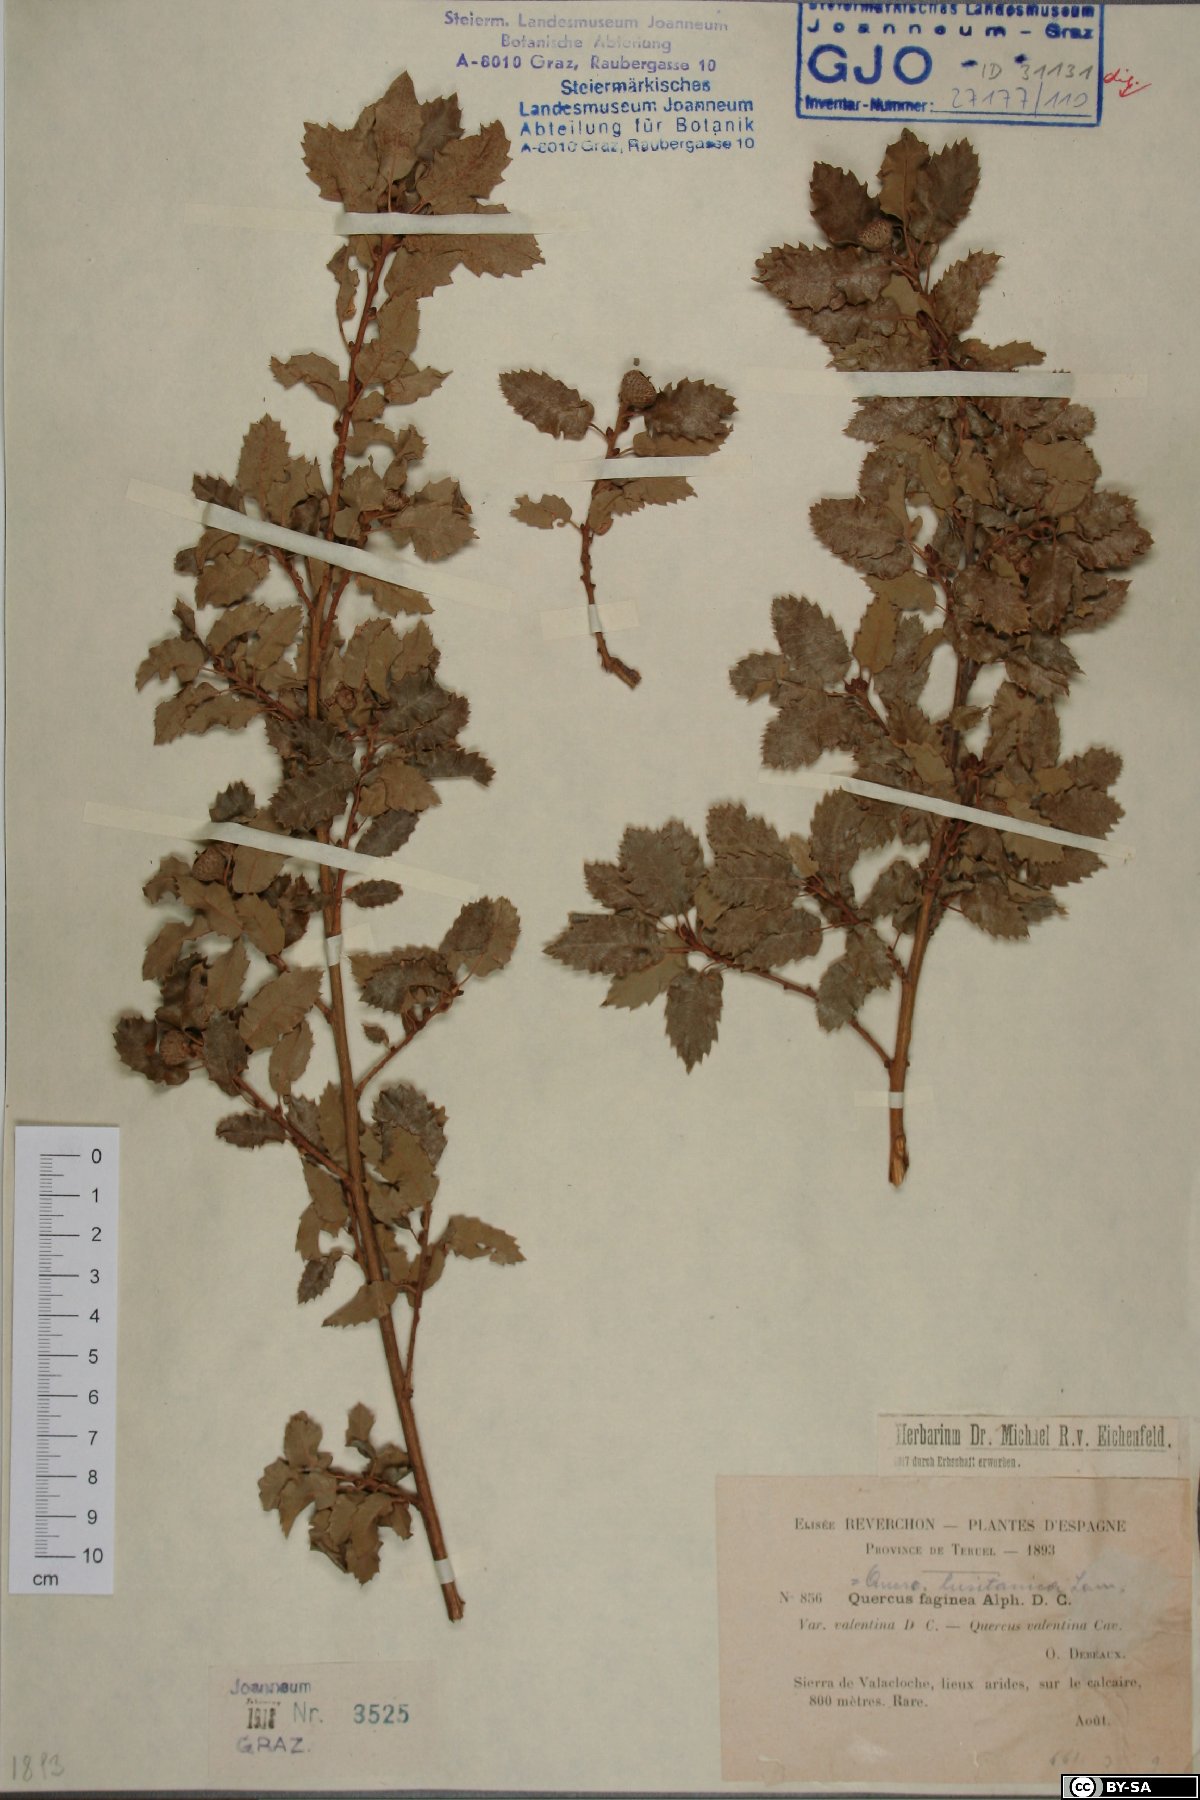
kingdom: Plantae
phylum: Tracheophyta
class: Magnoliopsida
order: Fagales
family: Fagaceae
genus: Quercus
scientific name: Quercus lusitanica
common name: Scrub gall oak
